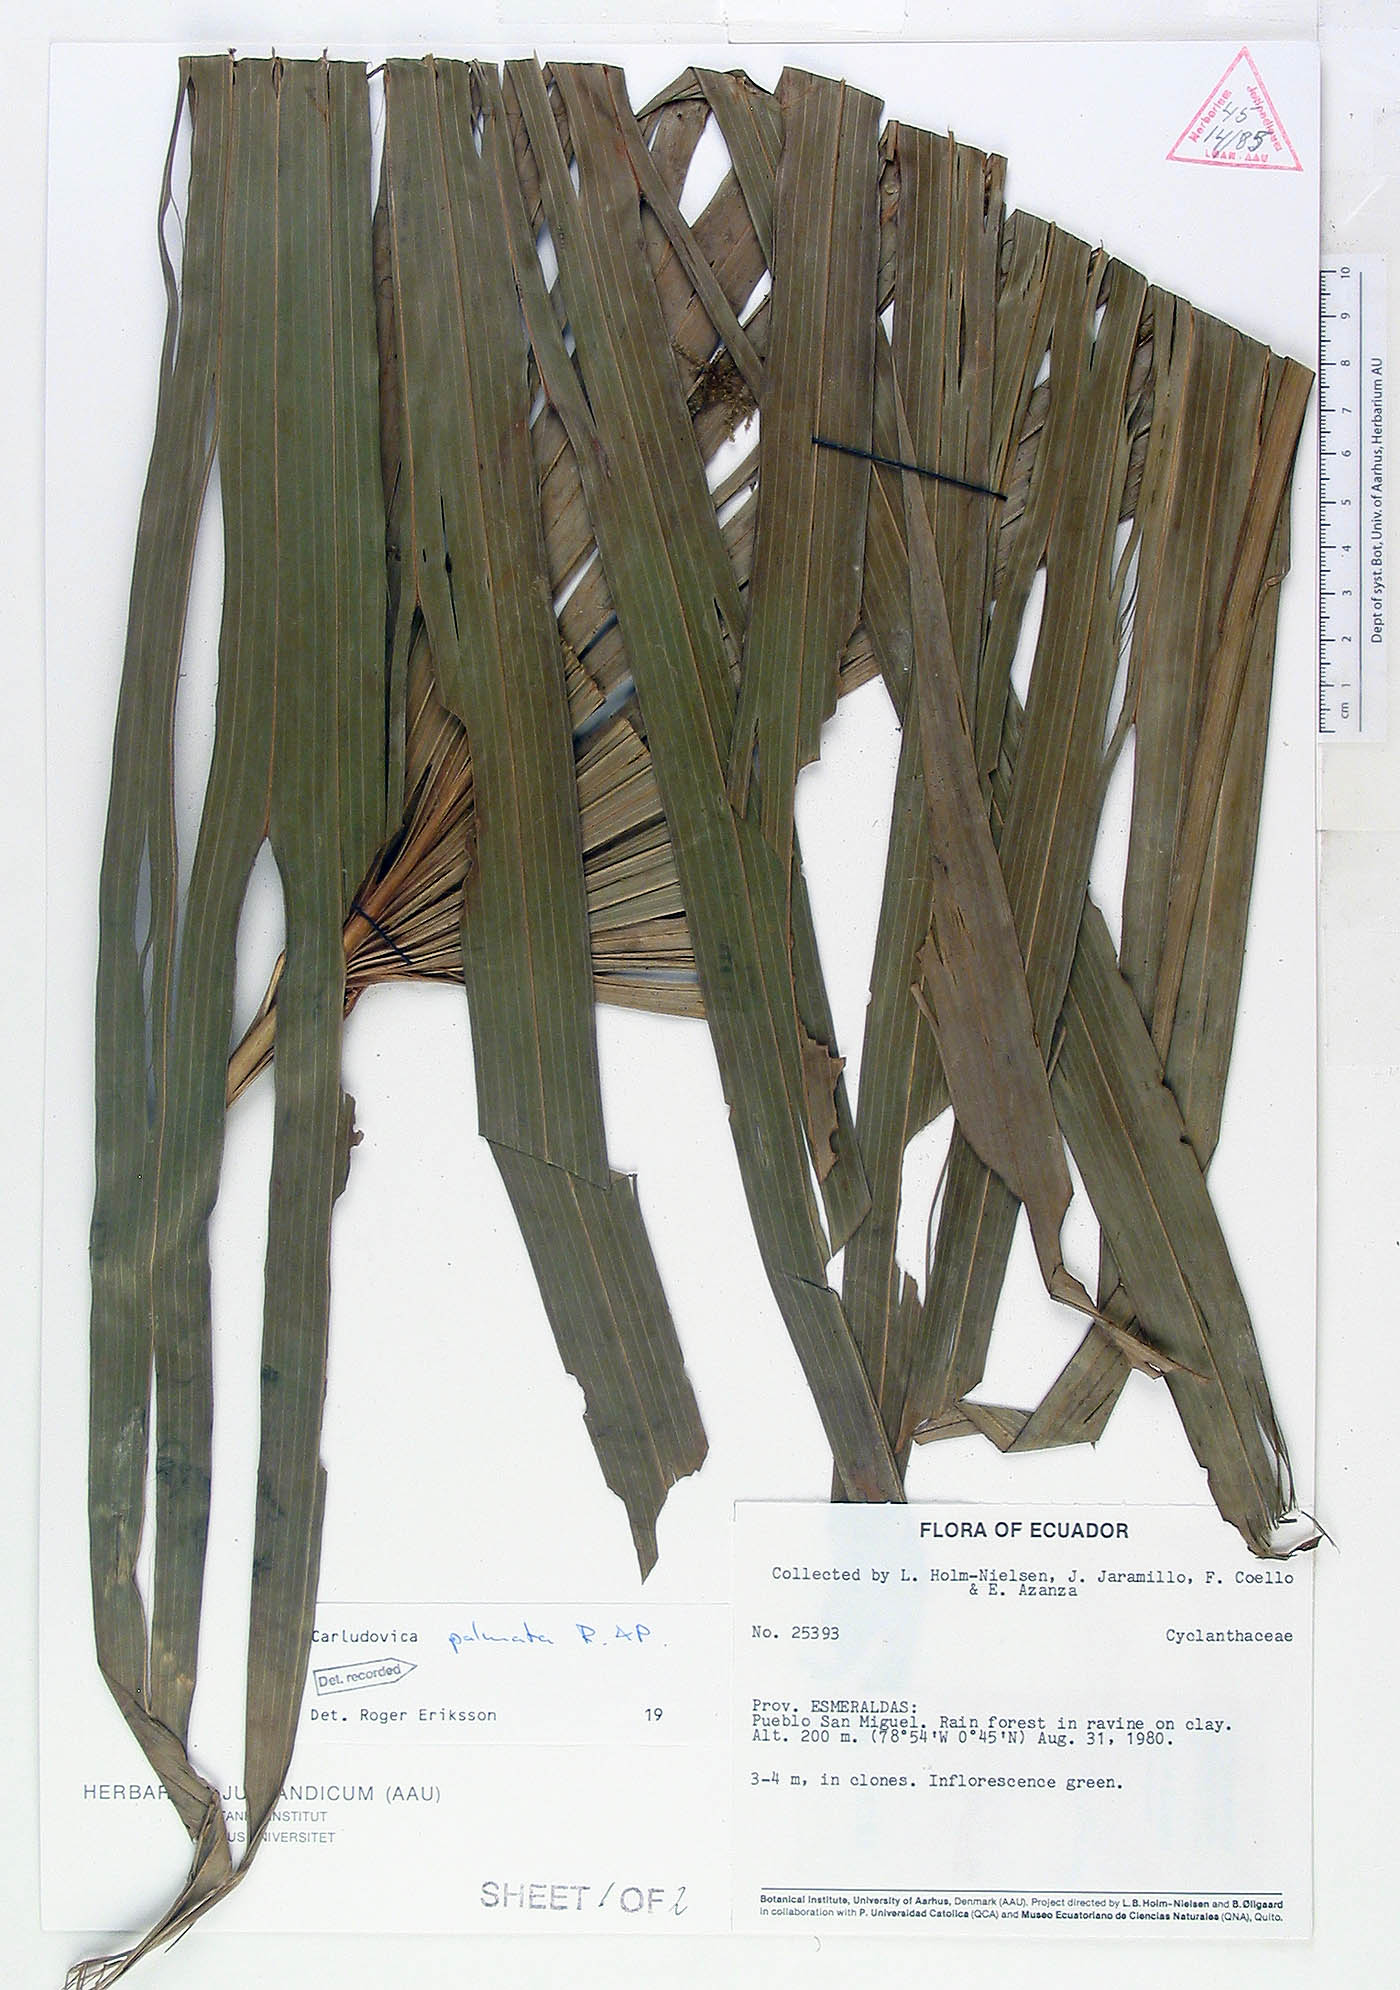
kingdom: Plantae
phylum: Tracheophyta
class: Liliopsida
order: Pandanales
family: Cyclanthaceae
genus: Carludovica
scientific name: Carludovica palmata
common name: Panama hat plant
